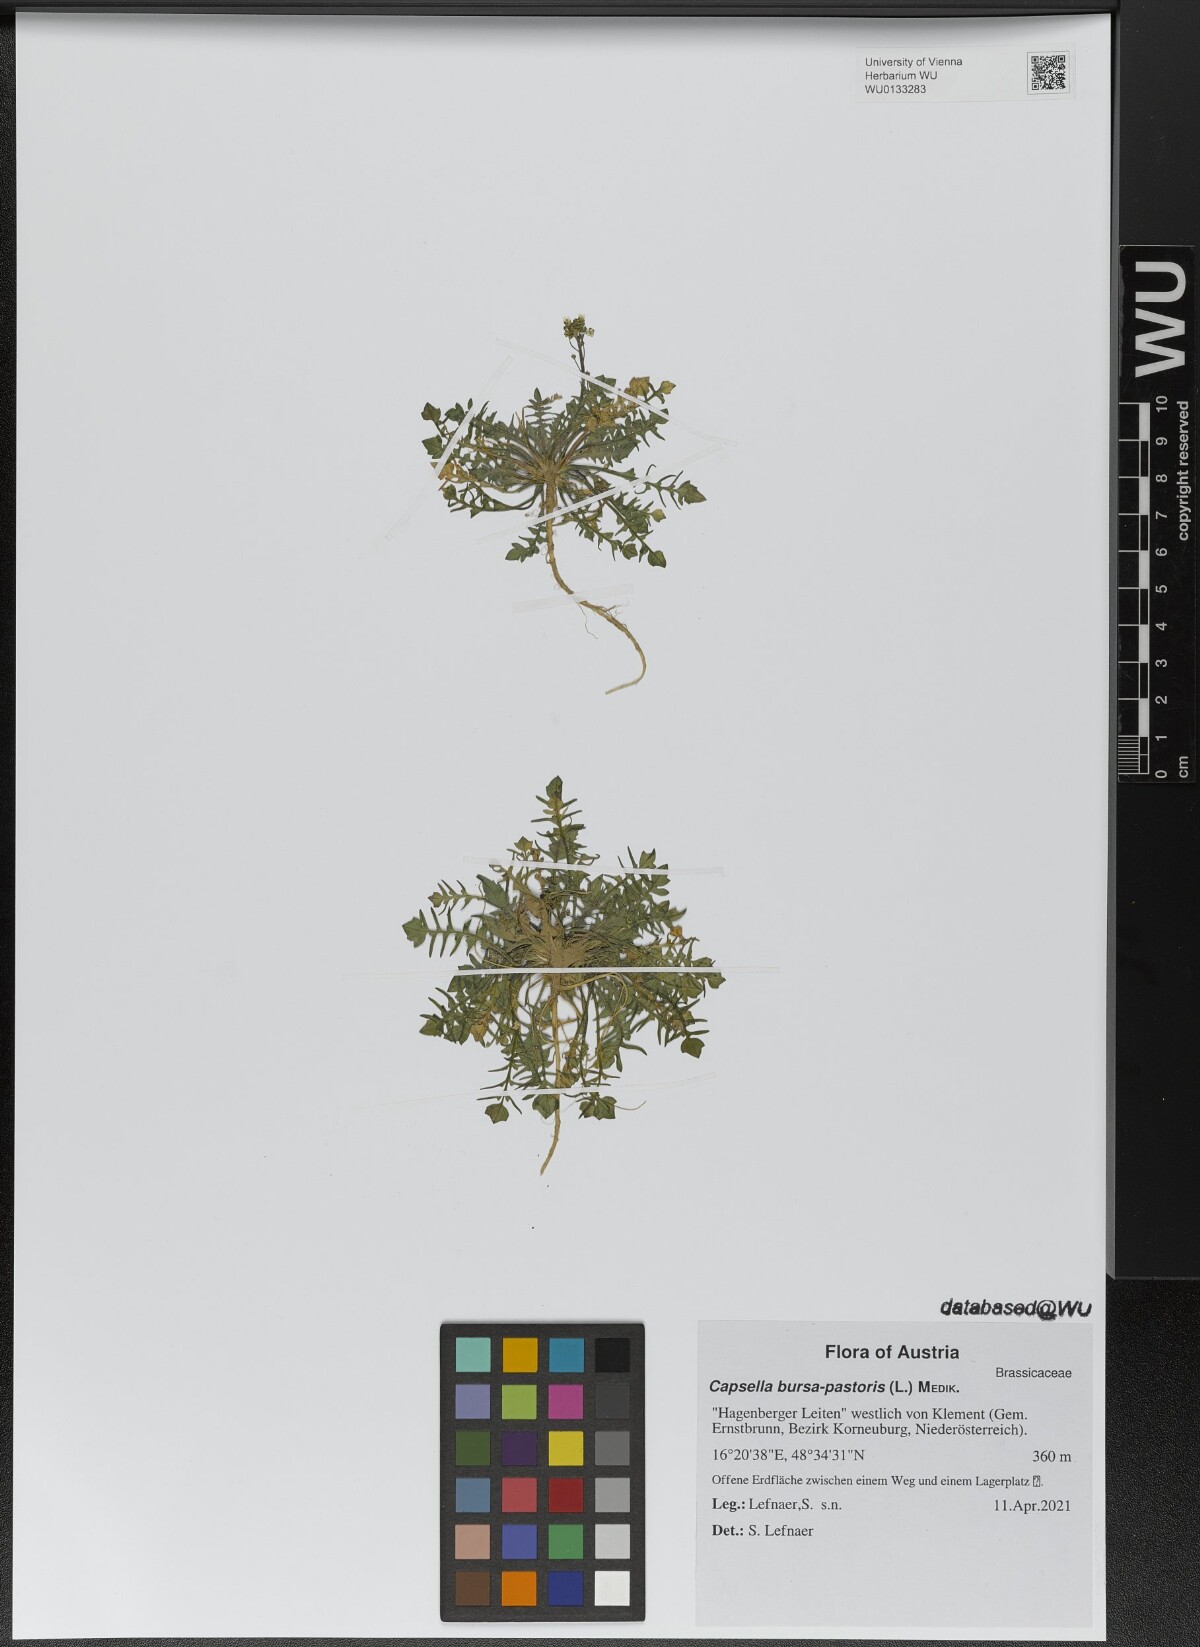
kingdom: Plantae
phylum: Tracheophyta
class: Magnoliopsida
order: Brassicales
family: Brassicaceae
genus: Capsella
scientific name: Capsella bursa-pastoris
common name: Shepherd's purse
